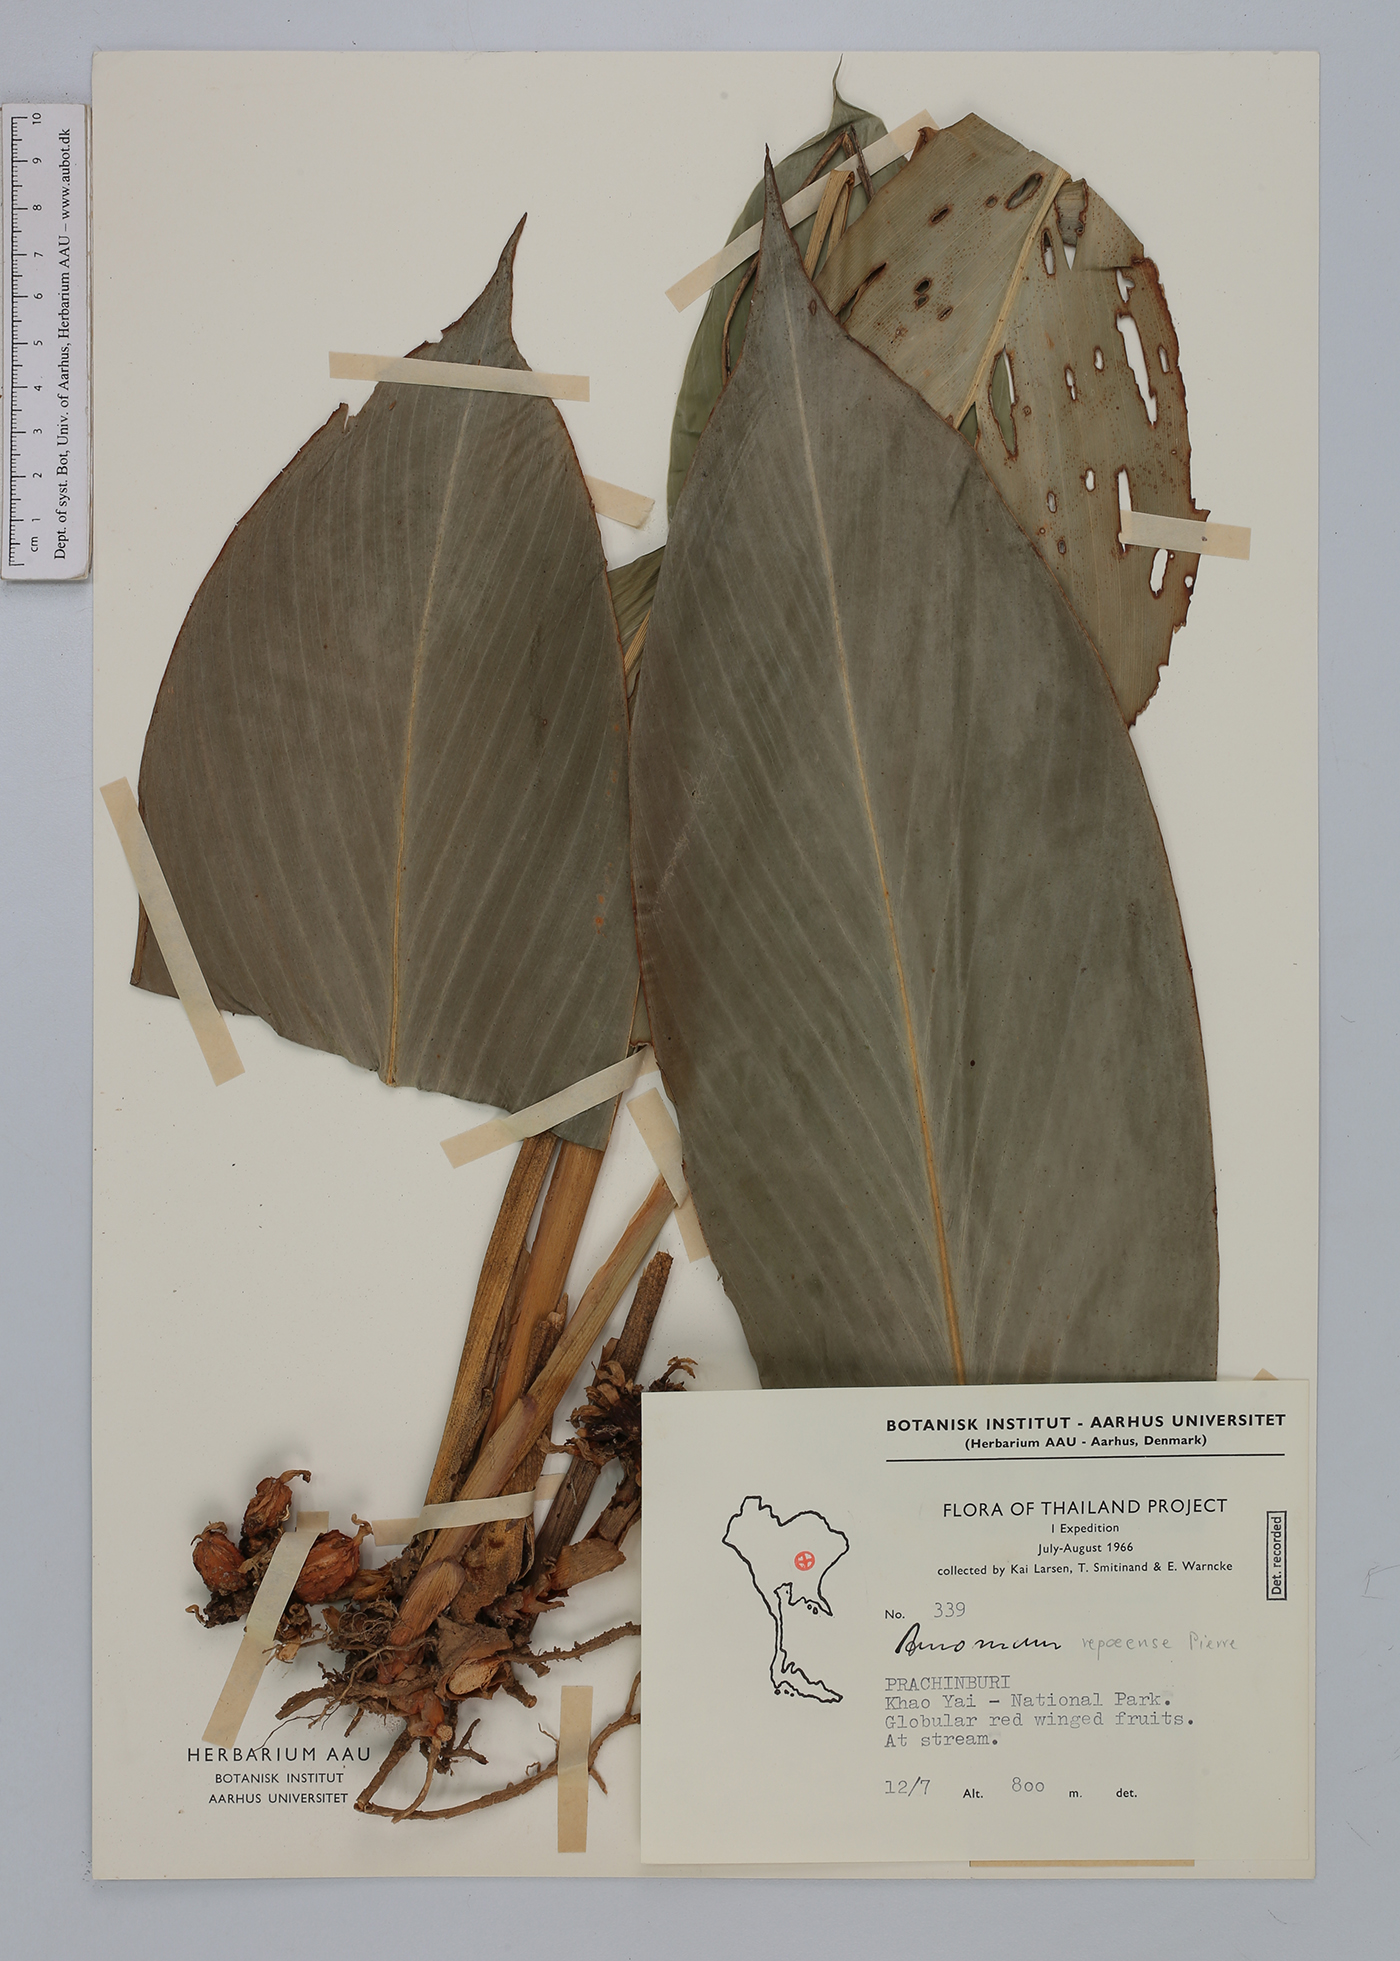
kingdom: Plantae
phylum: Tracheophyta
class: Liliopsida
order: Zingiberales
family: Zingiberaceae
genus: Amomum
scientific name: Amomum repoeense
